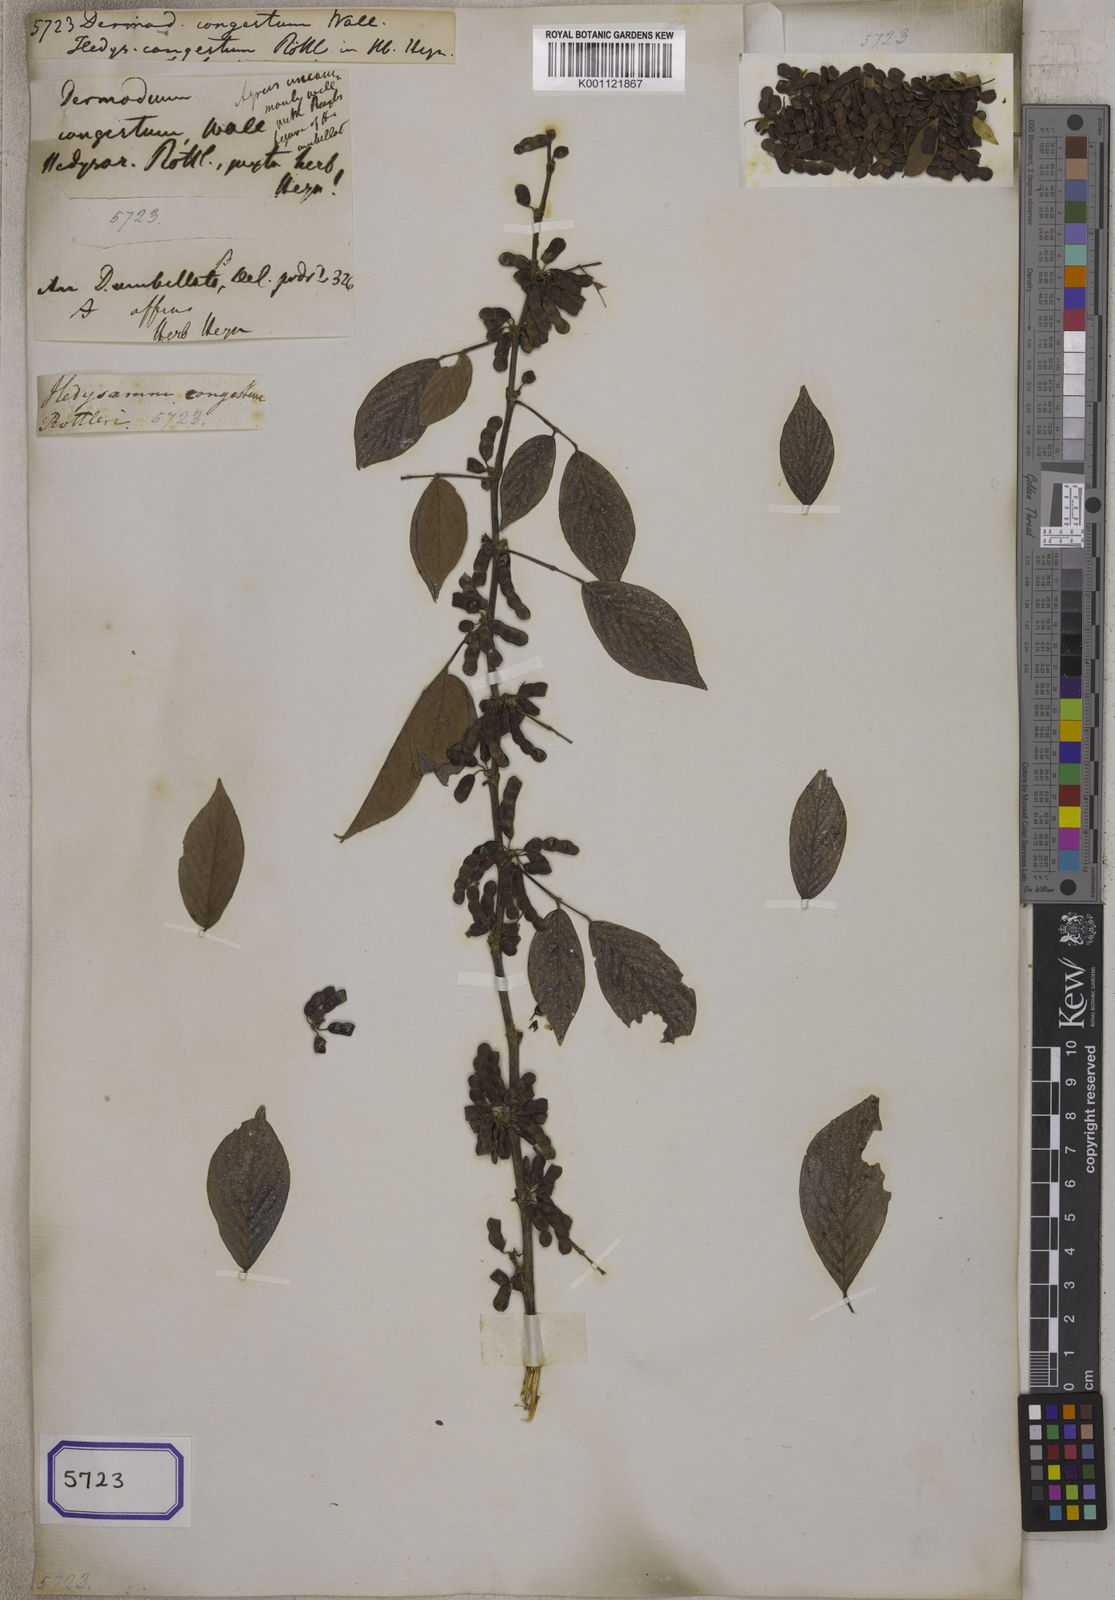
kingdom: Plantae
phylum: Tracheophyta
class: Magnoliopsida
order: Fabales
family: Fabaceae
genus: Desmodium
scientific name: Desmodium
